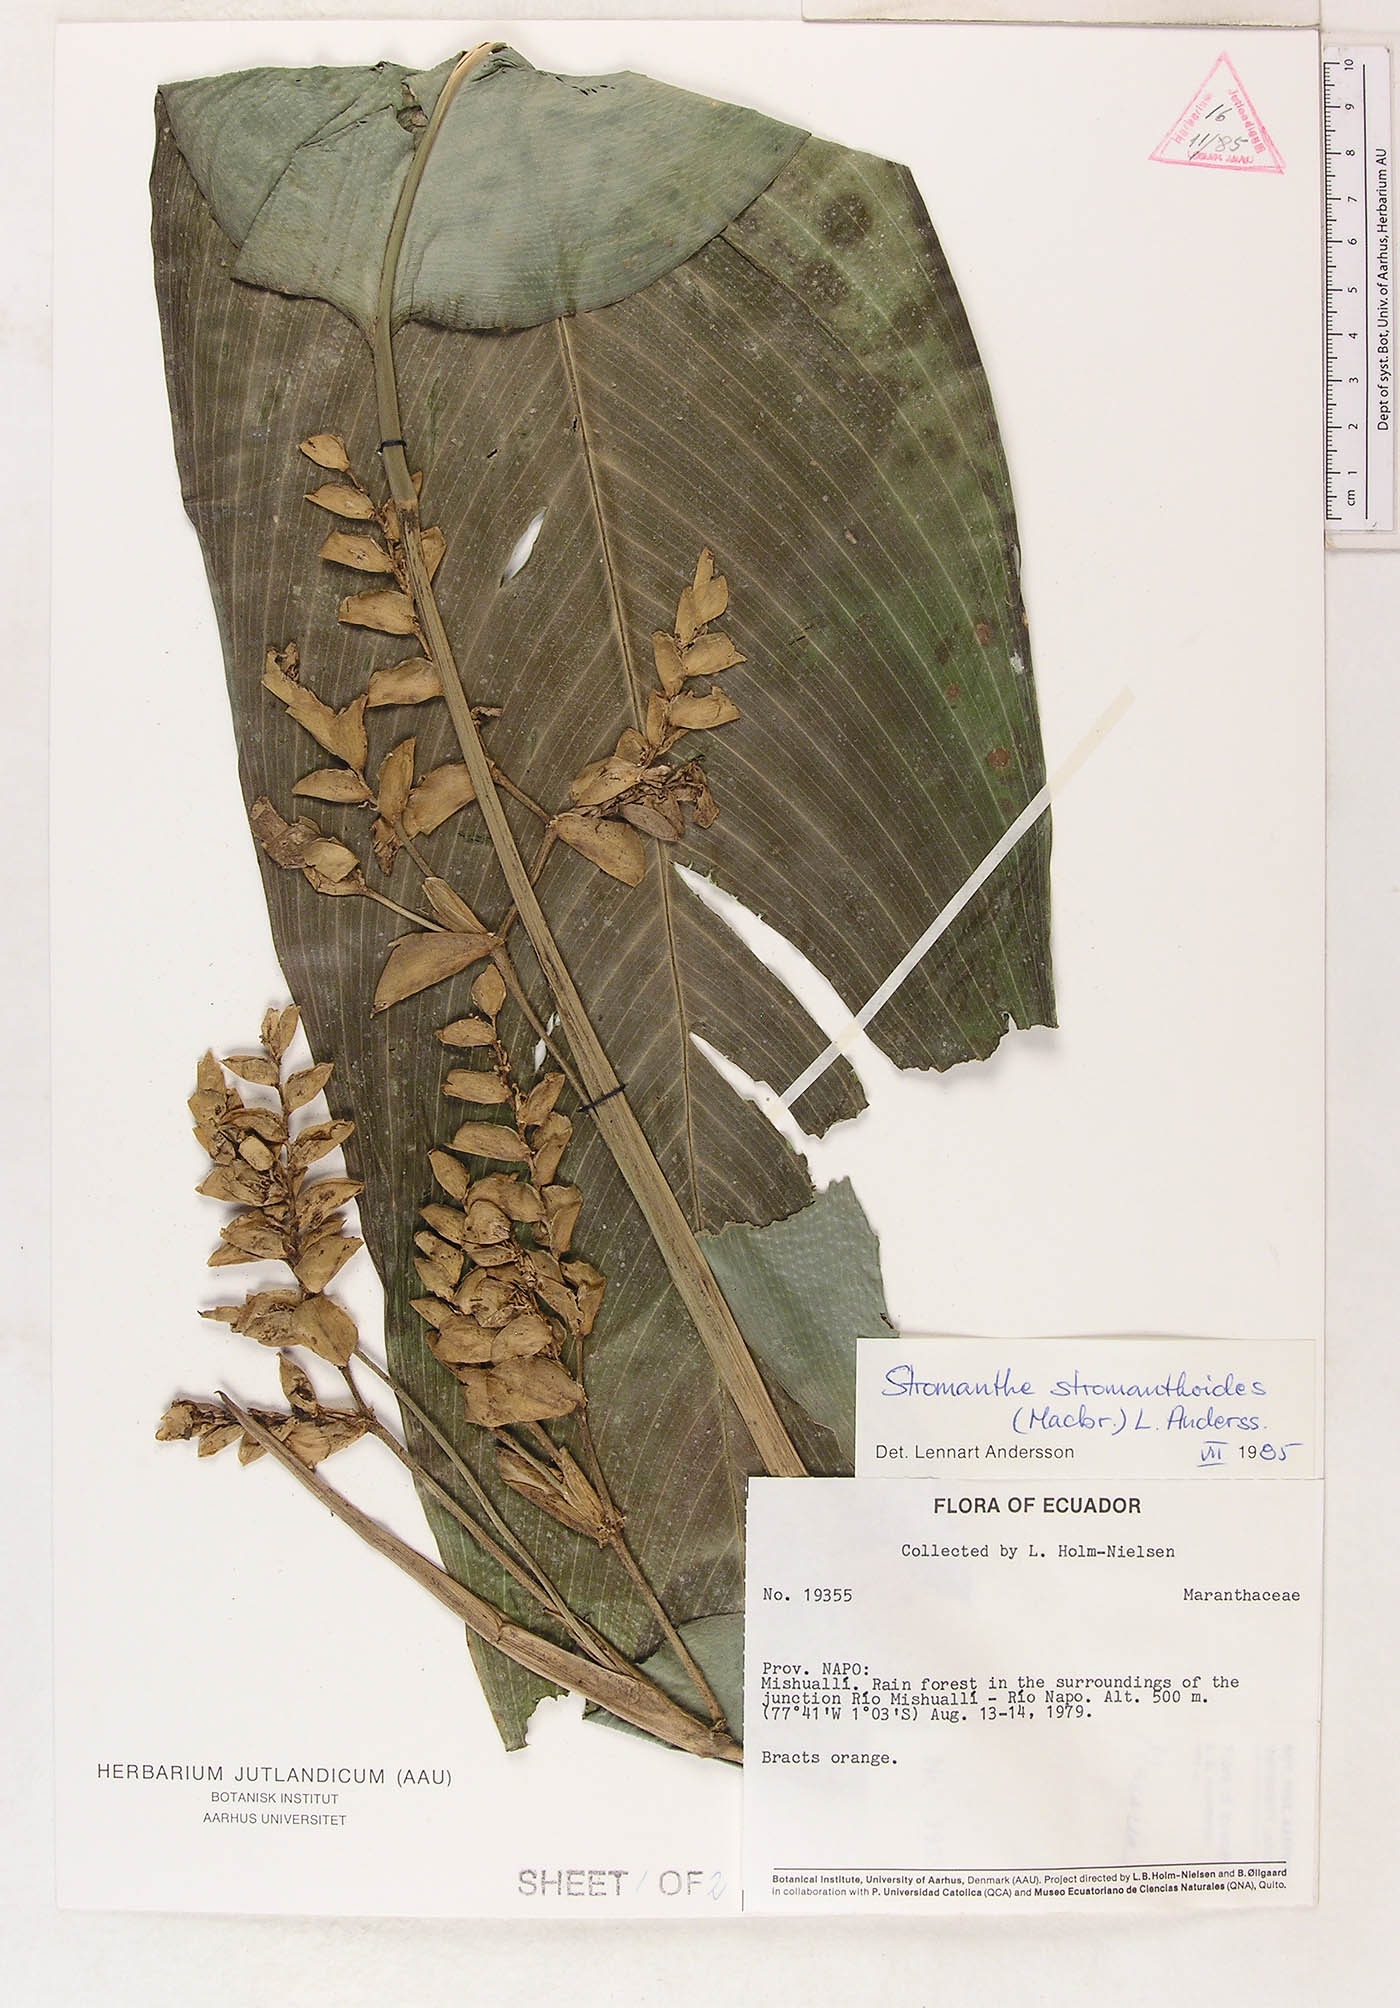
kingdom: Plantae
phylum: Tracheophyta
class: Liliopsida
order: Zingiberales
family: Marantaceae
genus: Stromanthe
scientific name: Stromanthe stromanthoides
